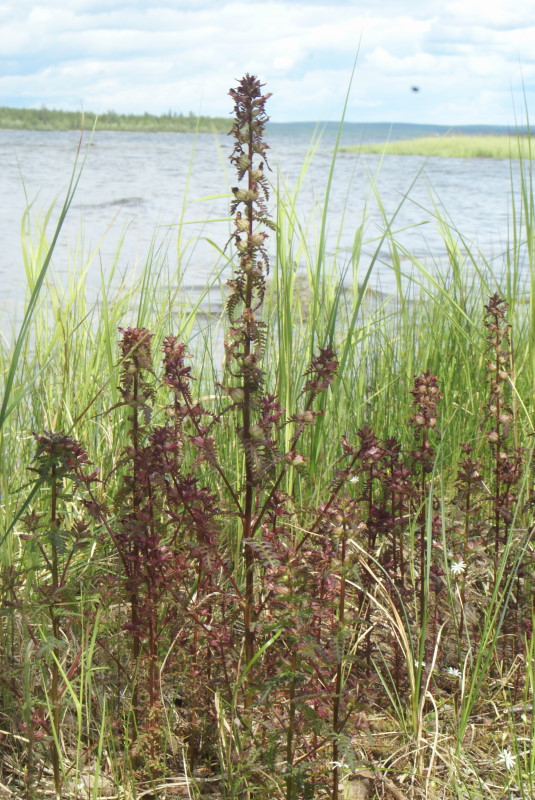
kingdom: Plantae
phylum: Tracheophyta
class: Magnoliopsida
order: Lamiales
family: Orobanchaceae
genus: Pedicularis
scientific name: Pedicularis palustris
